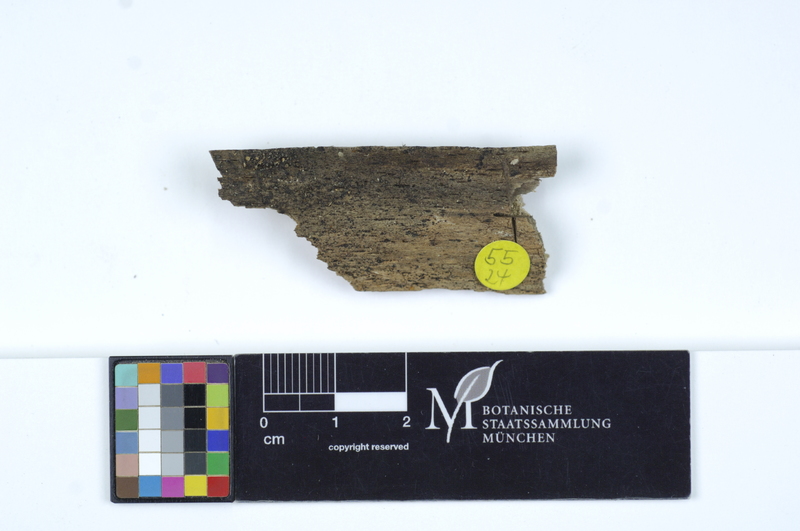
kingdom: Plantae
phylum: Tracheophyta
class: Magnoliopsida
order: Fagales
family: Fagaceae
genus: Fagus
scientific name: Fagus sylvatica
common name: Beech
